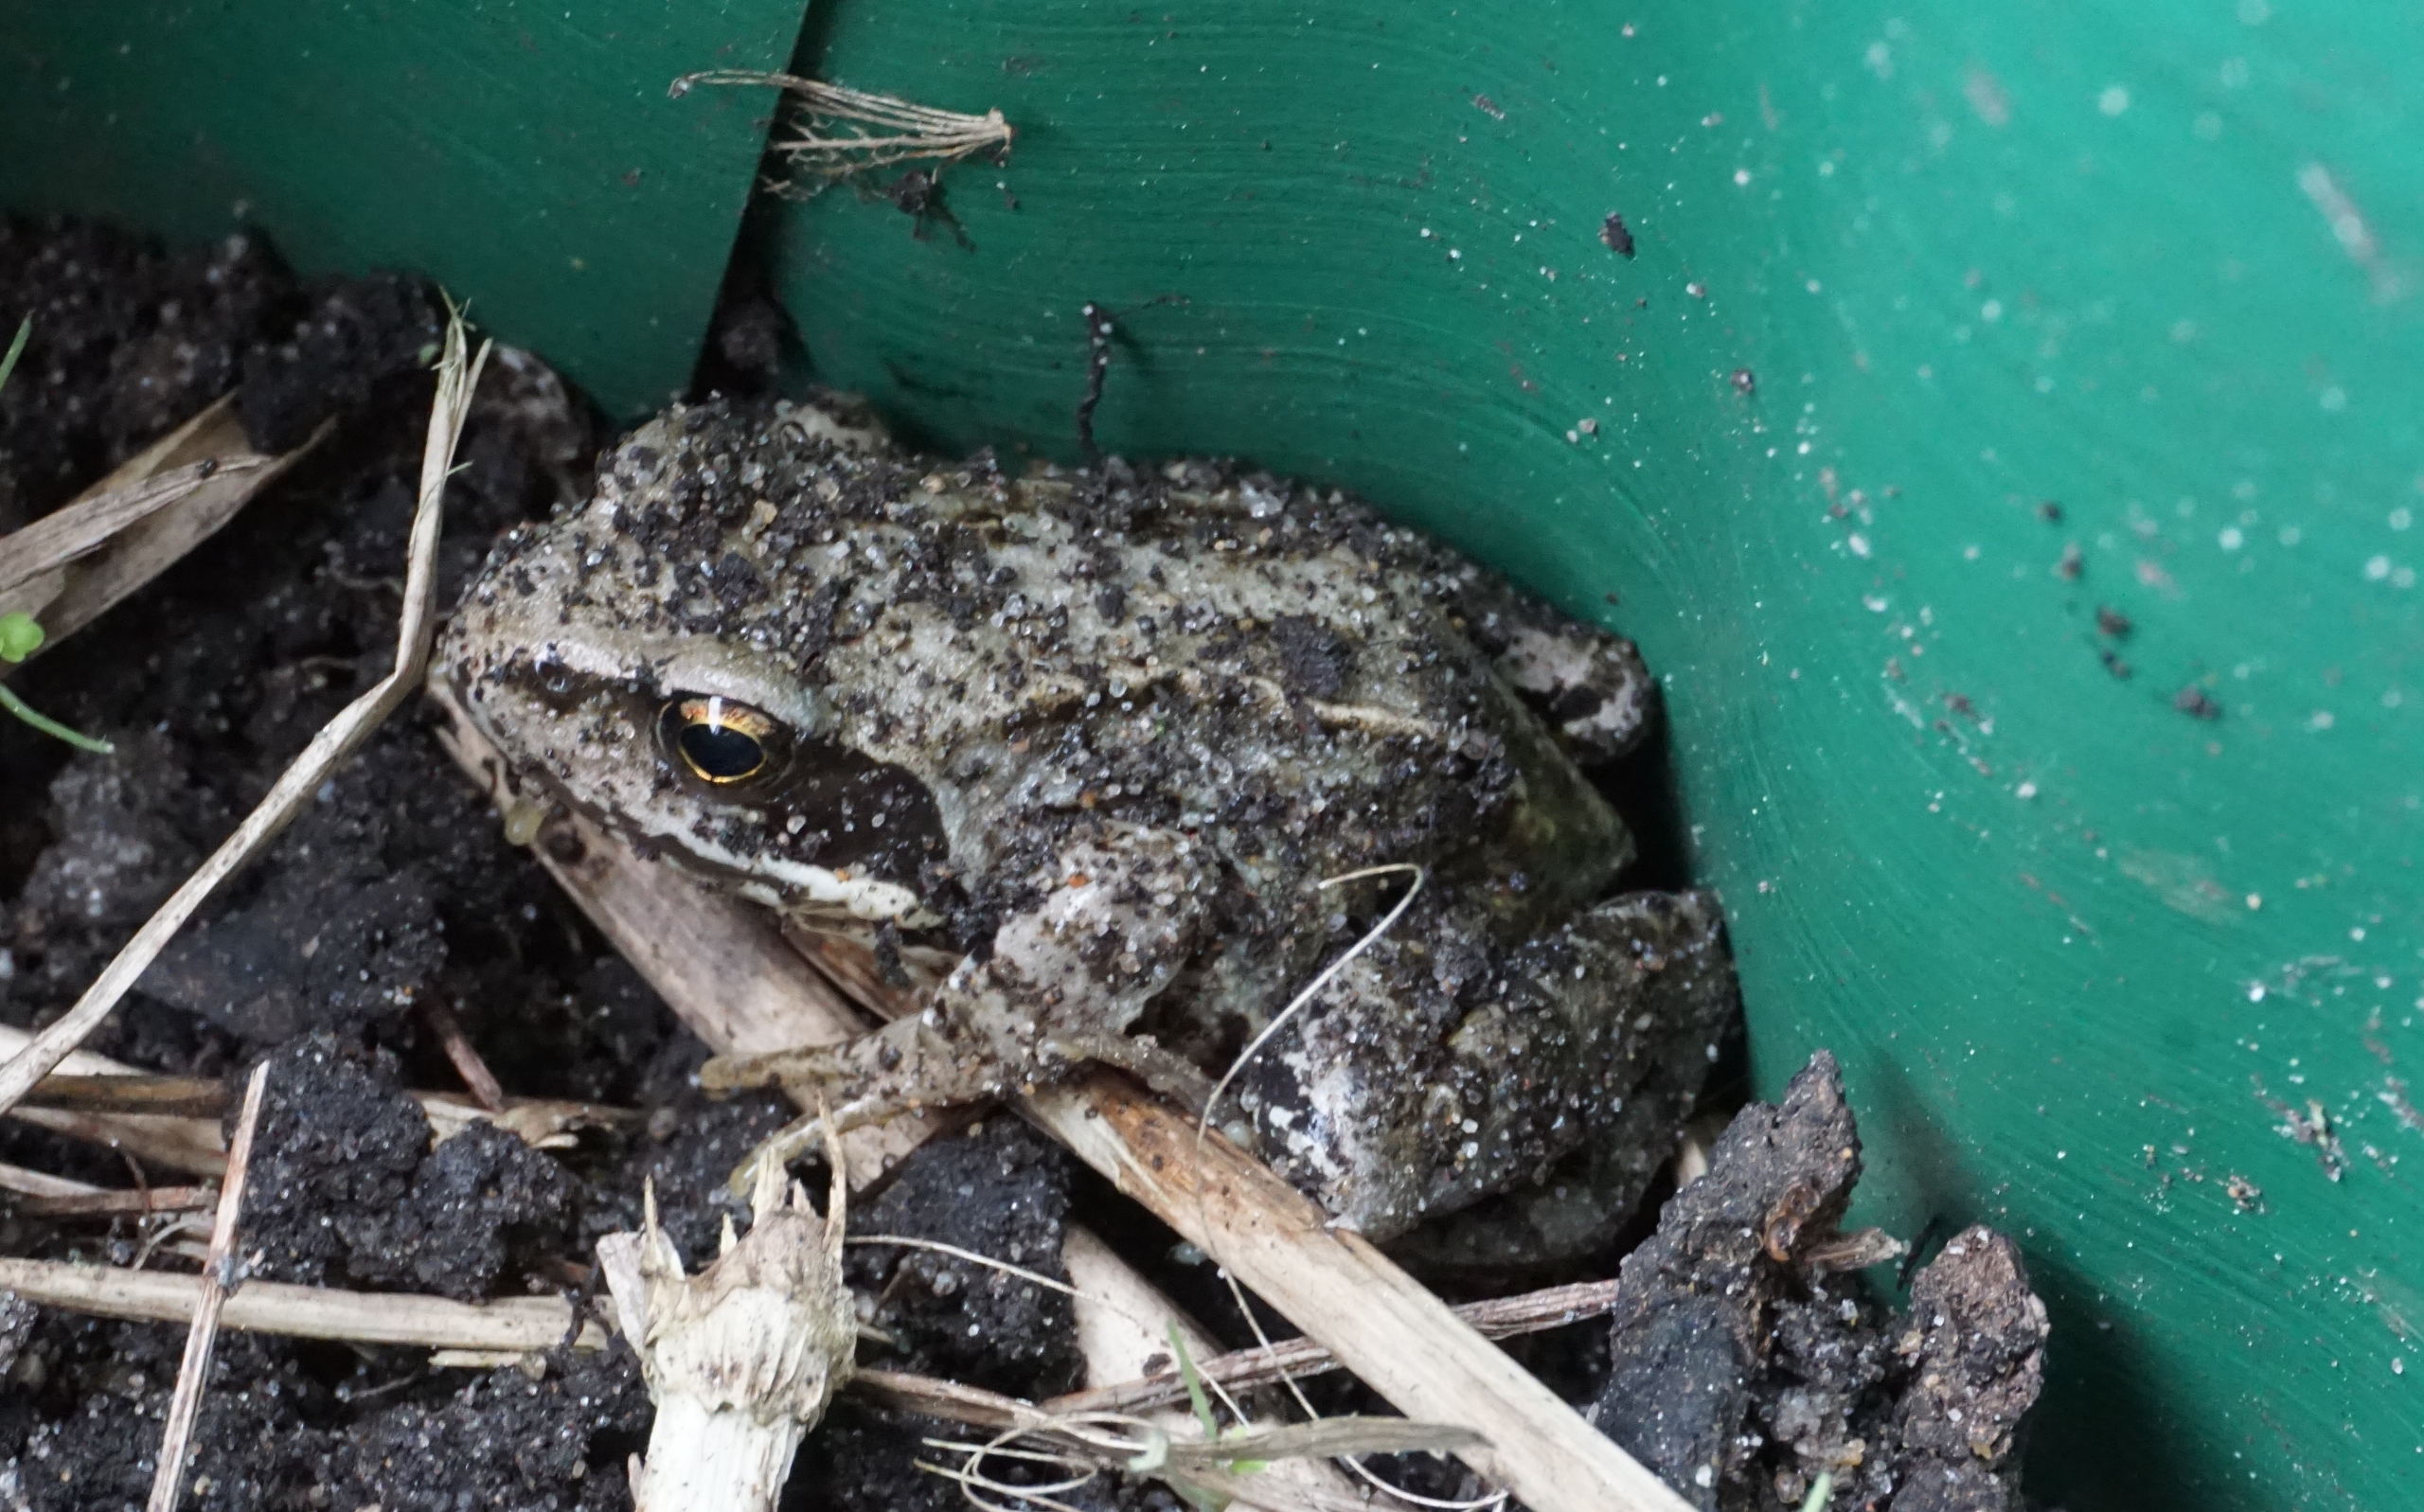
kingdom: Animalia
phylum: Chordata
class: Amphibia
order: Anura
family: Ranidae
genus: Rana
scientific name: Rana temporaria
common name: Butsnudet frø
